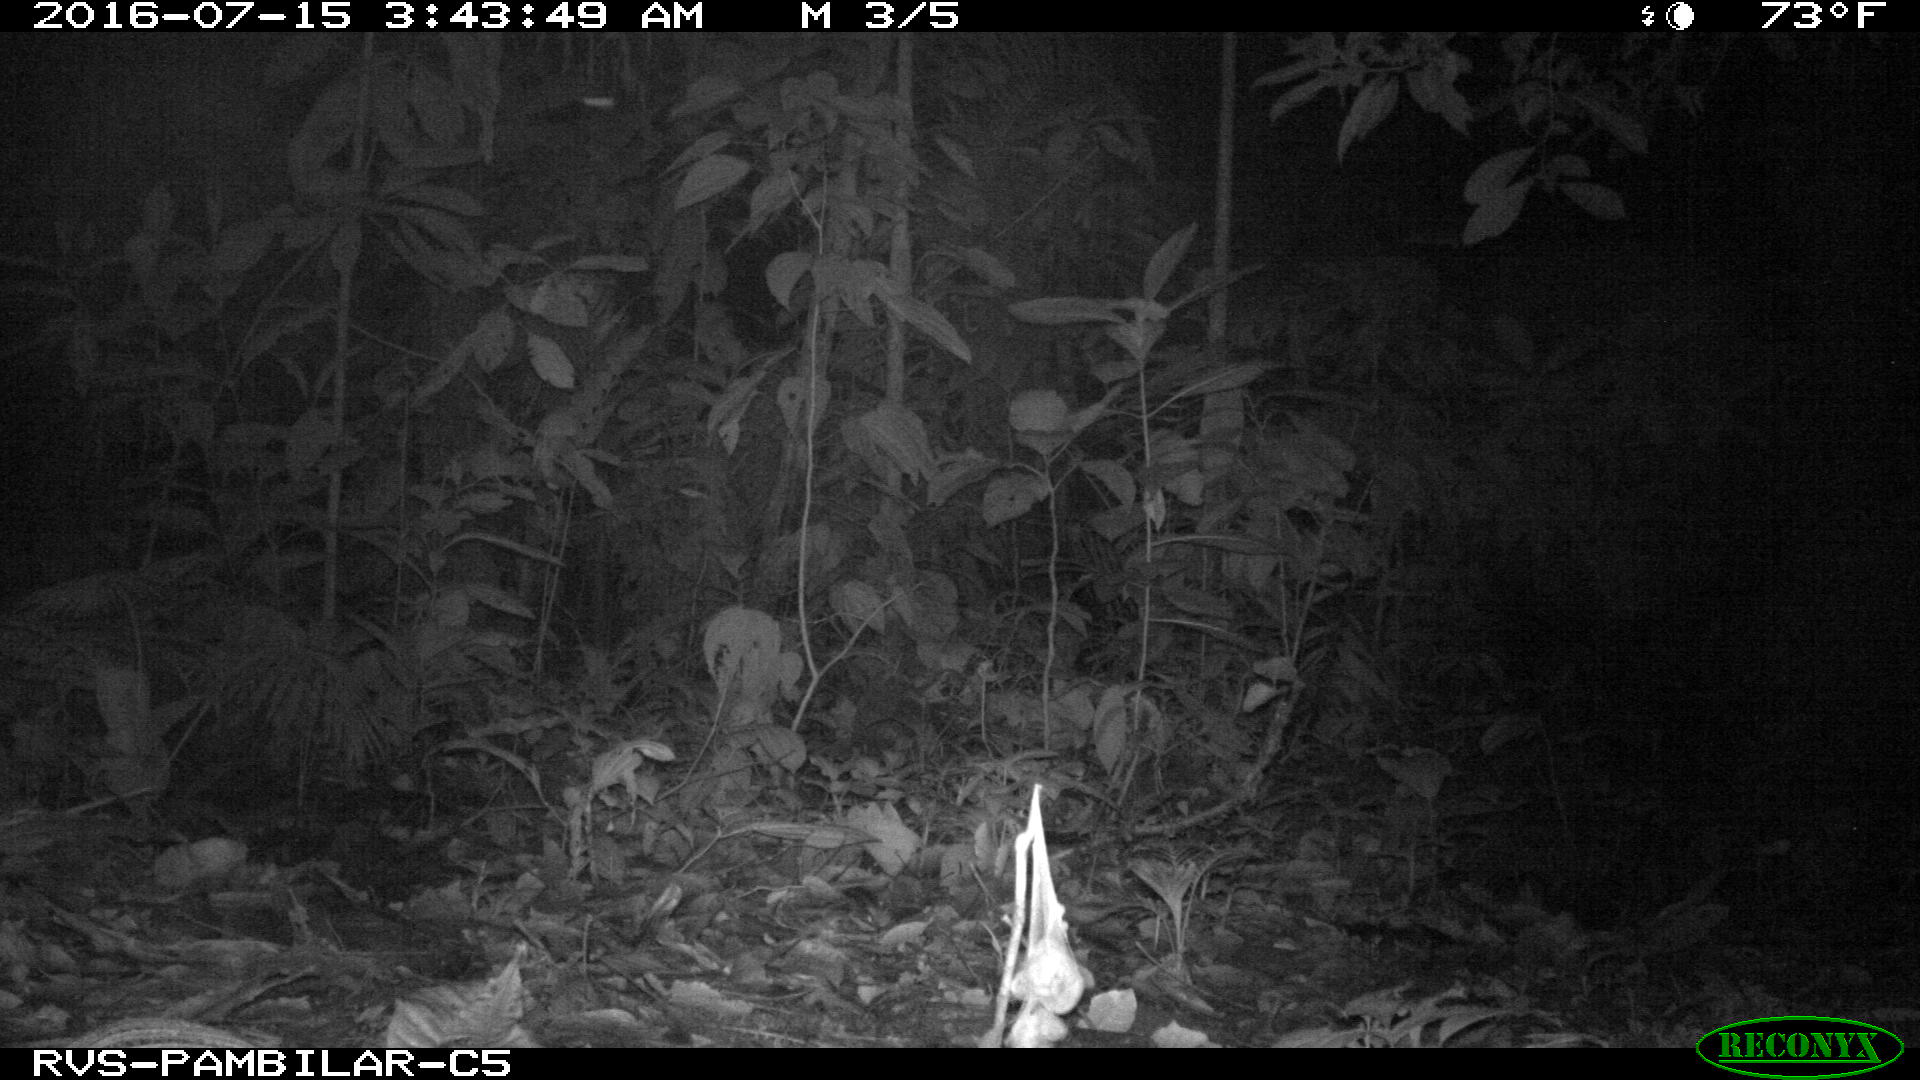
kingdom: Animalia
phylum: Chordata
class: Mammalia
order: Cingulata
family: Dasypodidae
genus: Dasypus
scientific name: Dasypus novemcinctus
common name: Nine-banded armadillo
